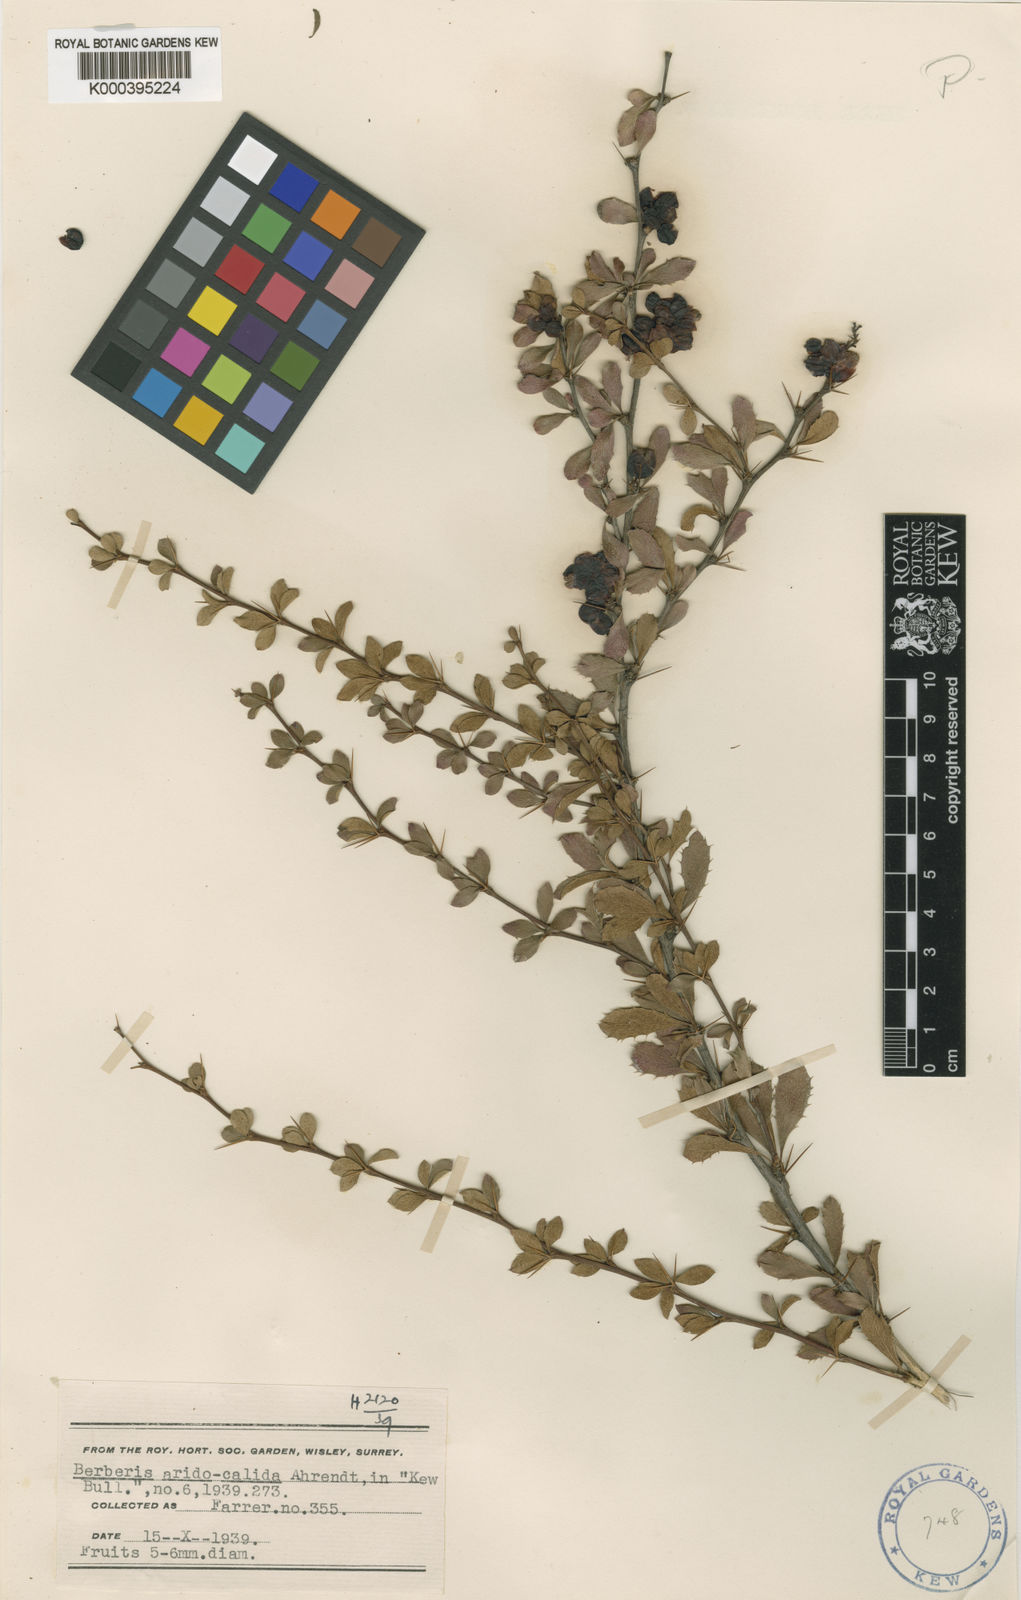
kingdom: Plantae
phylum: Tracheophyta
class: Magnoliopsida
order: Ranunculales
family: Berberidaceae
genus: Berberis
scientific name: Berberis aggregata
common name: Clustered barberry
